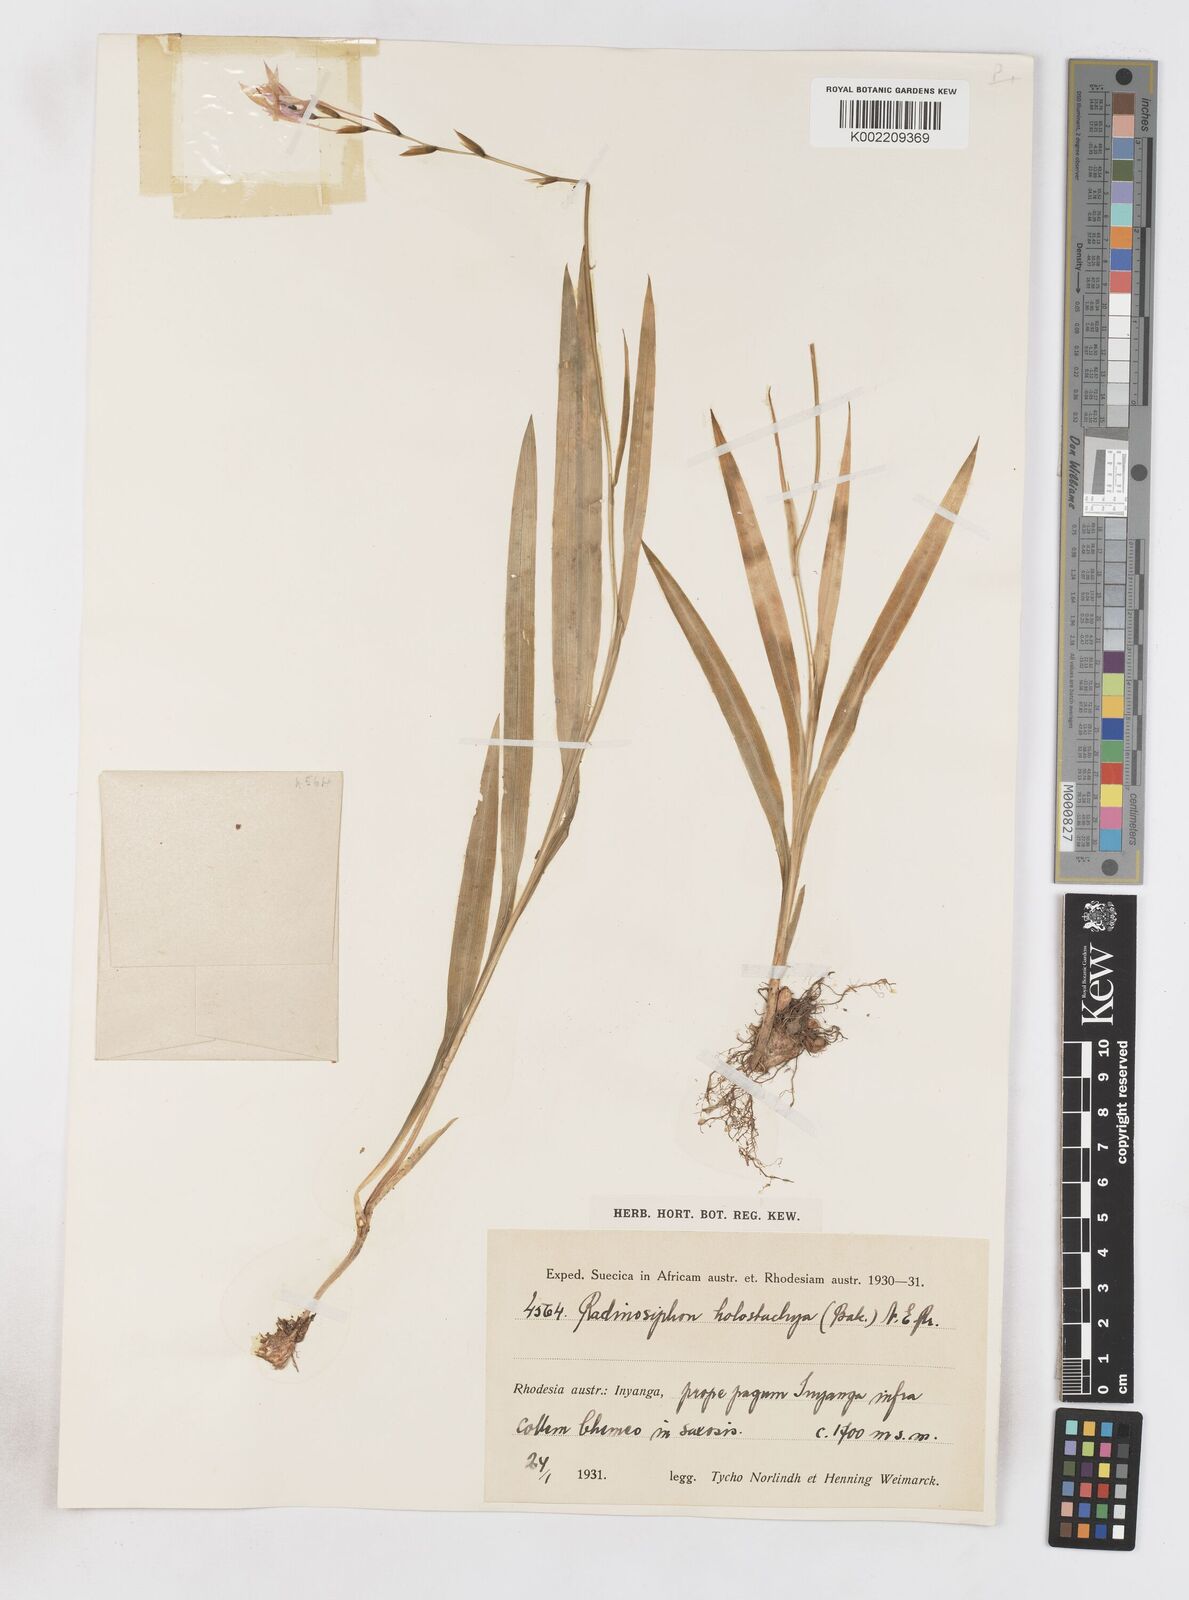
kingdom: Plantae
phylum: Tracheophyta
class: Liliopsida
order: Asparagales
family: Iridaceae
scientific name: Iridaceae
